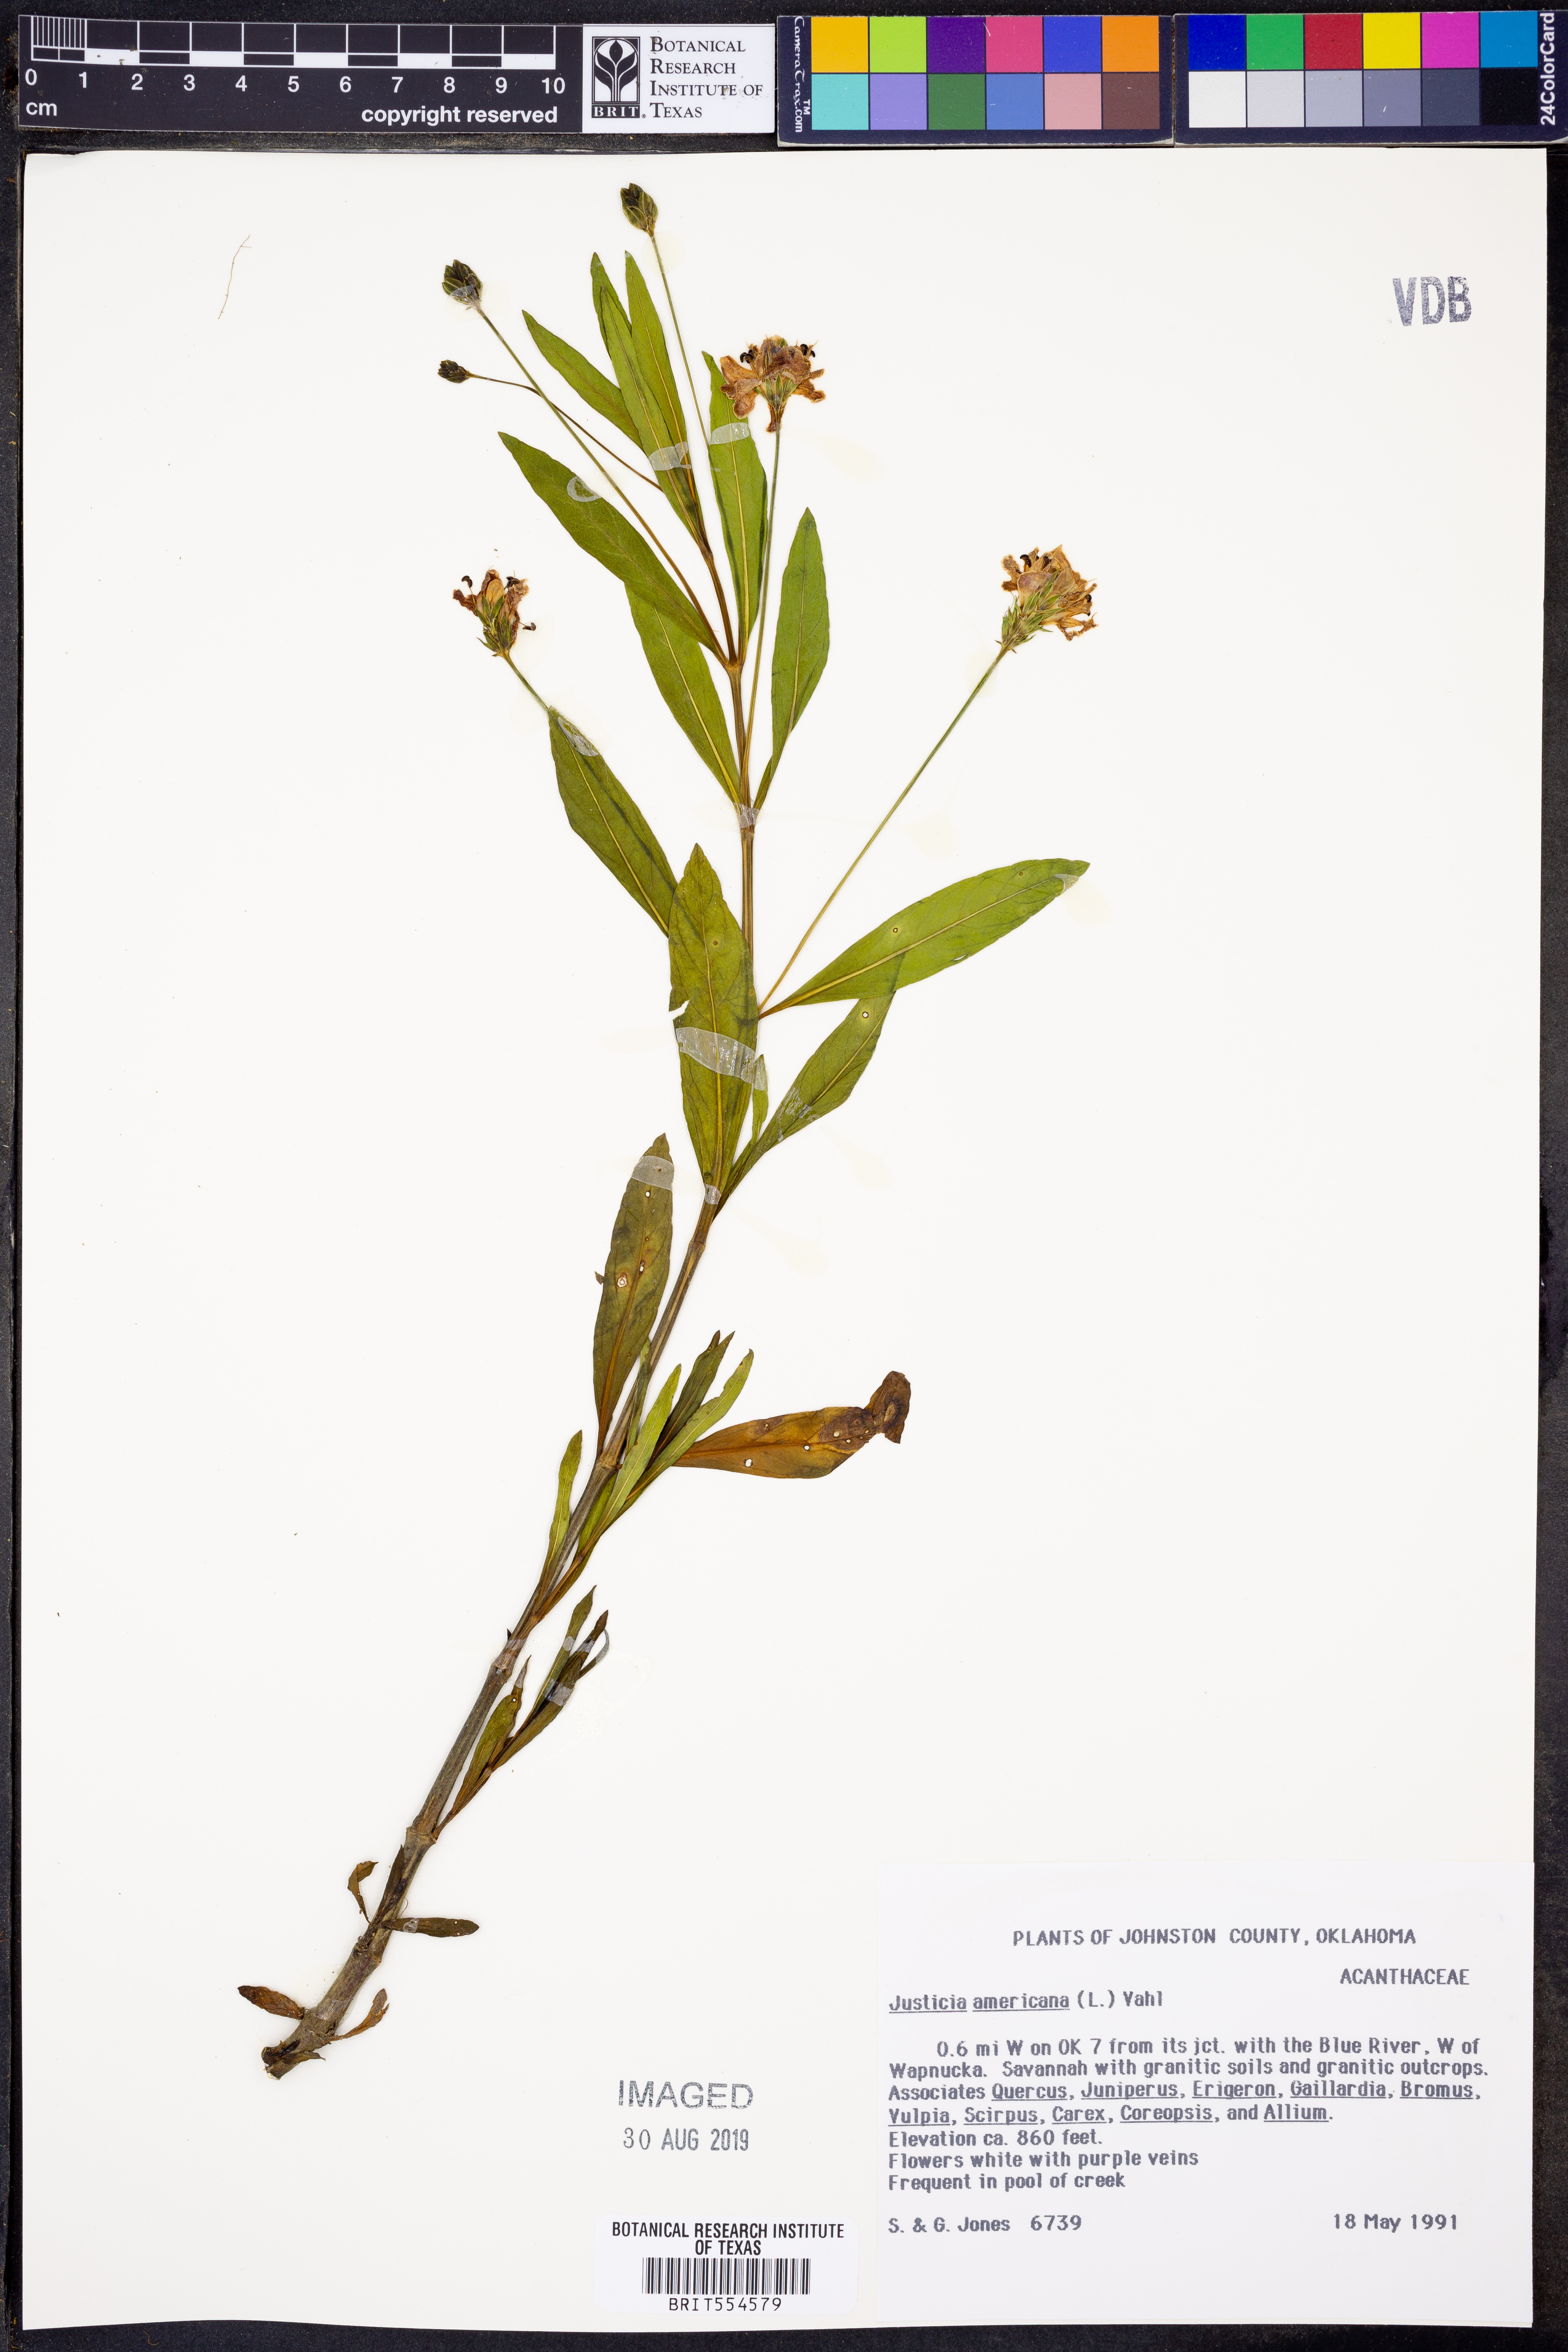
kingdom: Plantae
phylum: Tracheophyta
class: Magnoliopsida
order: Lamiales
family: Acanthaceae
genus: Dianthera
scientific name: Dianthera americana
